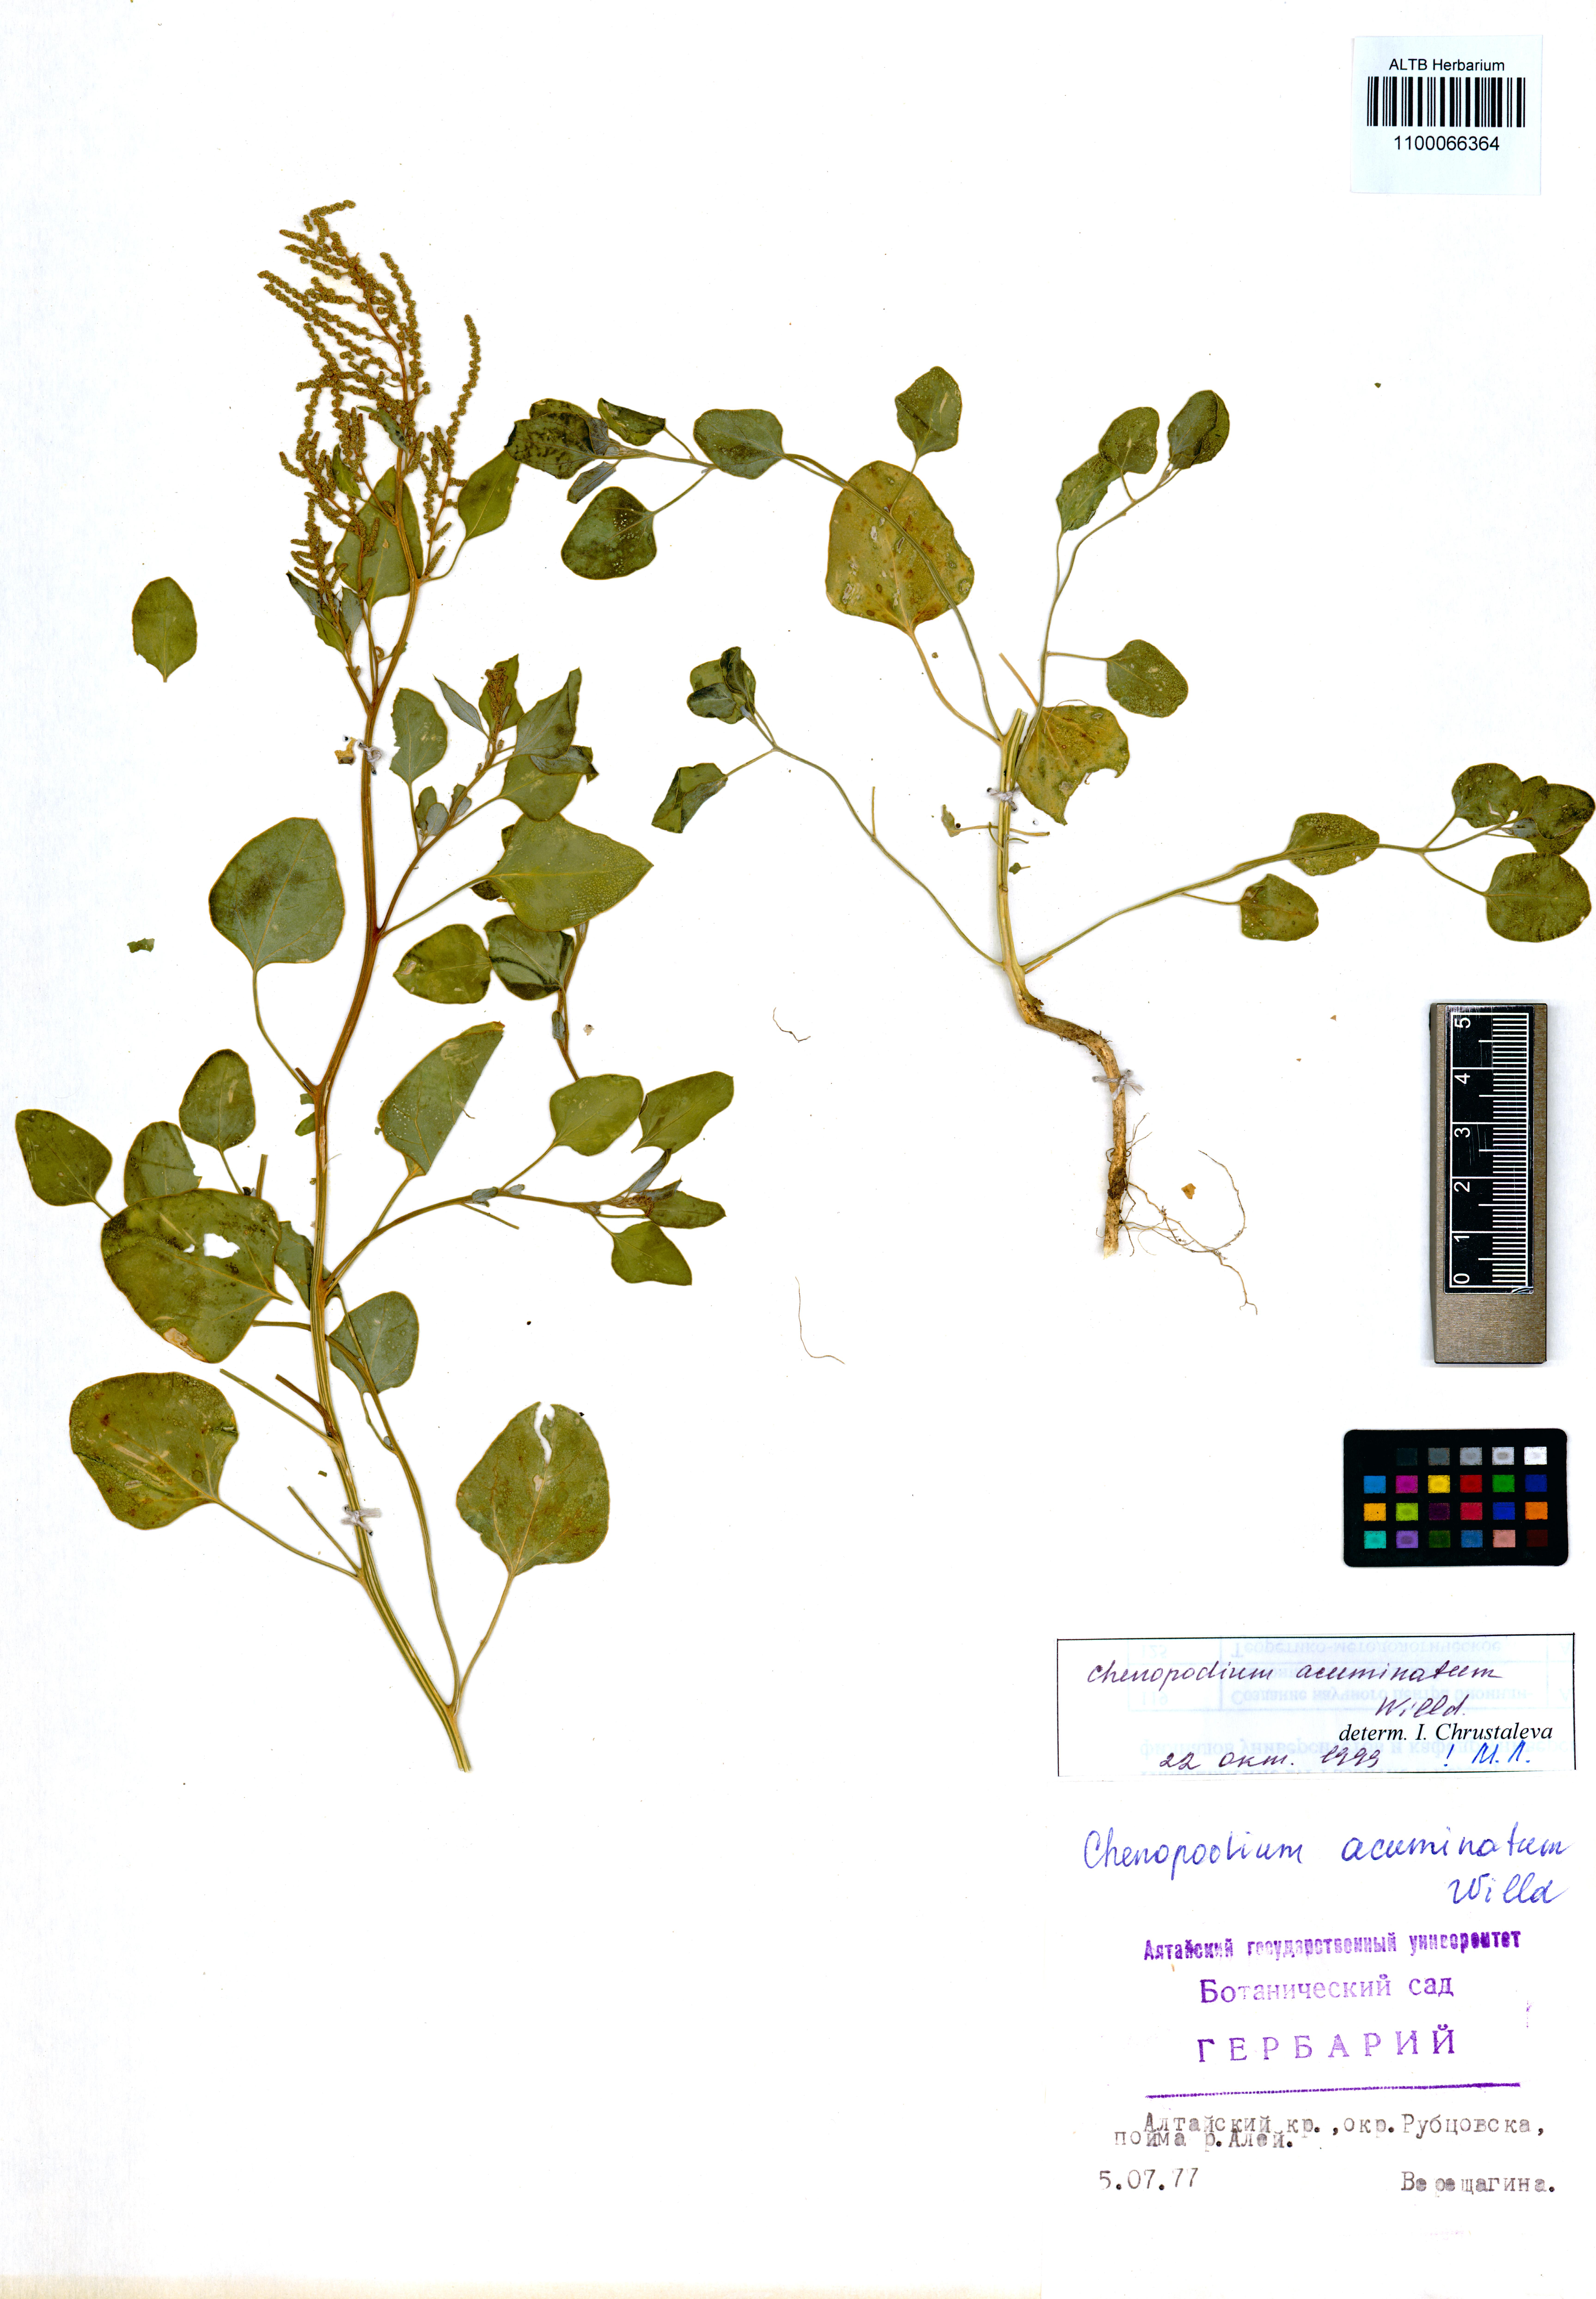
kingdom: Plantae
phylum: Tracheophyta
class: Magnoliopsida
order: Caryophyllales
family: Amaranthaceae
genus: Chenopodium
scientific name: Chenopodium acuminatum
